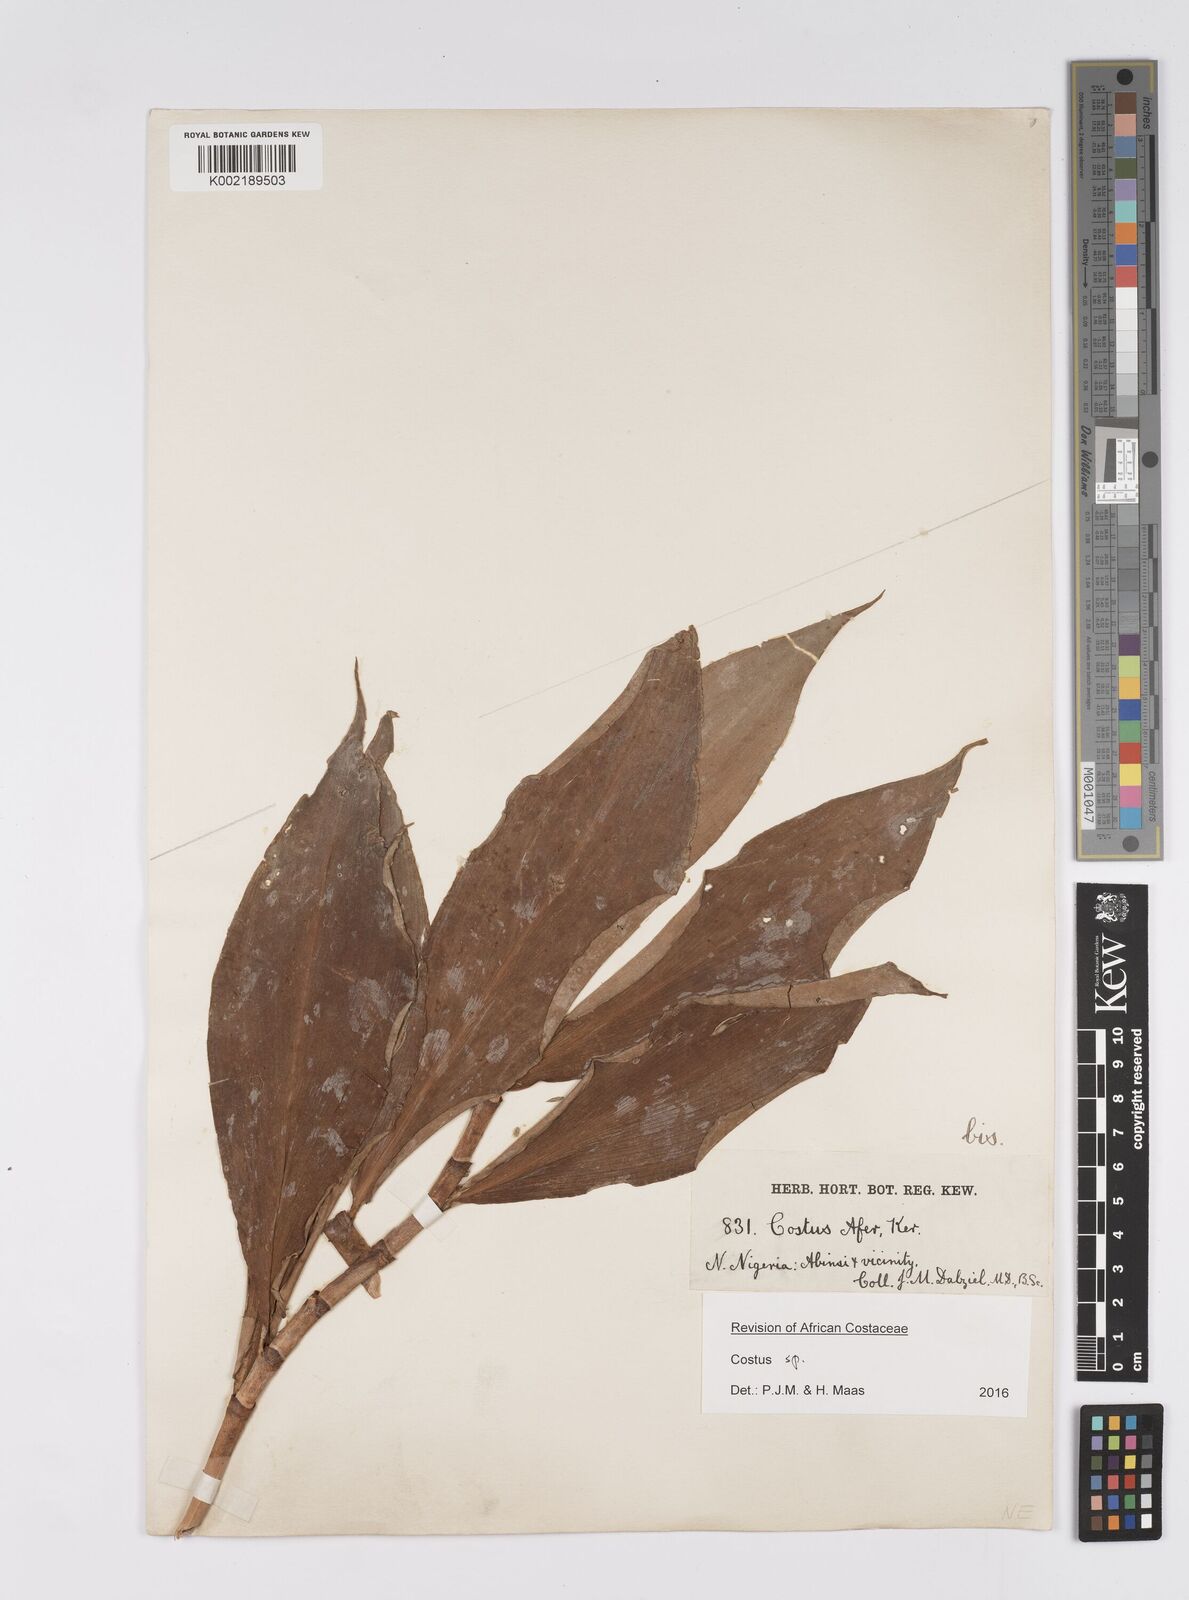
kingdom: Plantae
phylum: Tracheophyta
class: Liliopsida
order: Zingiberales
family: Costaceae
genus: Costus
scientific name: Costus afer
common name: Spiral-ginger
